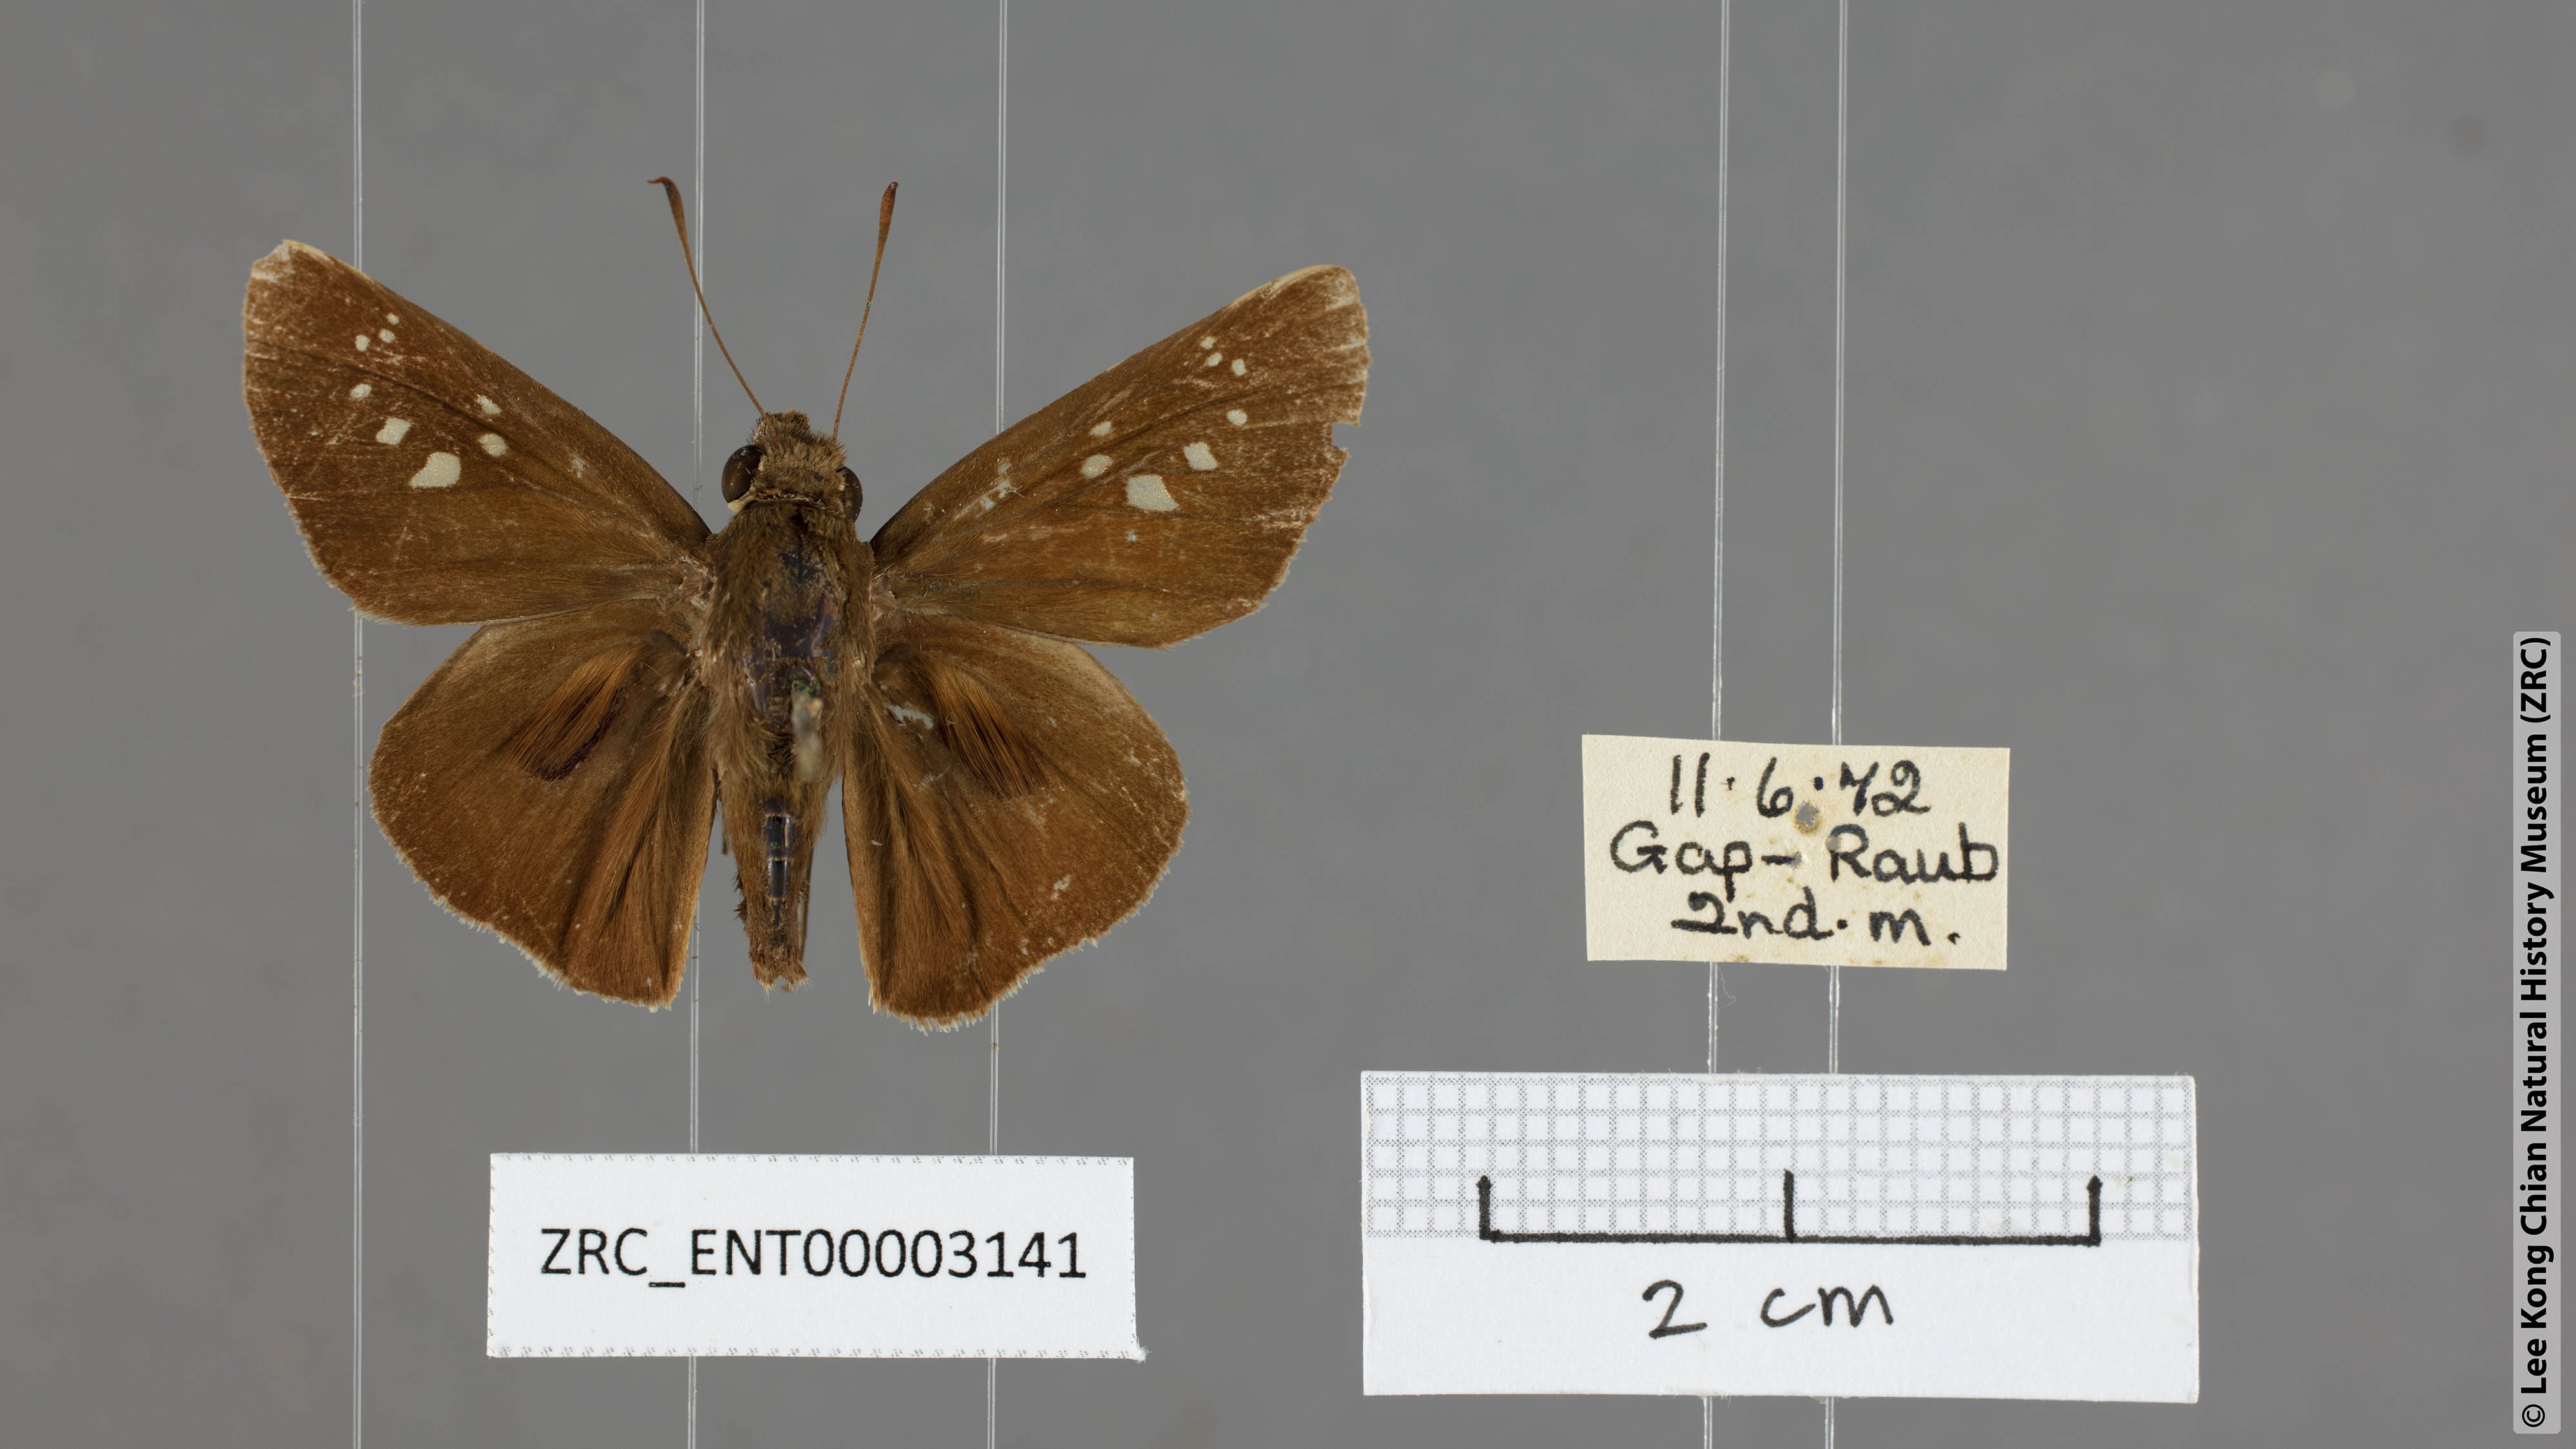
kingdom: Animalia
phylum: Arthropoda
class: Insecta
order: Lepidoptera
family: Hesperiidae
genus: Baoris
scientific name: Baoris oceia
